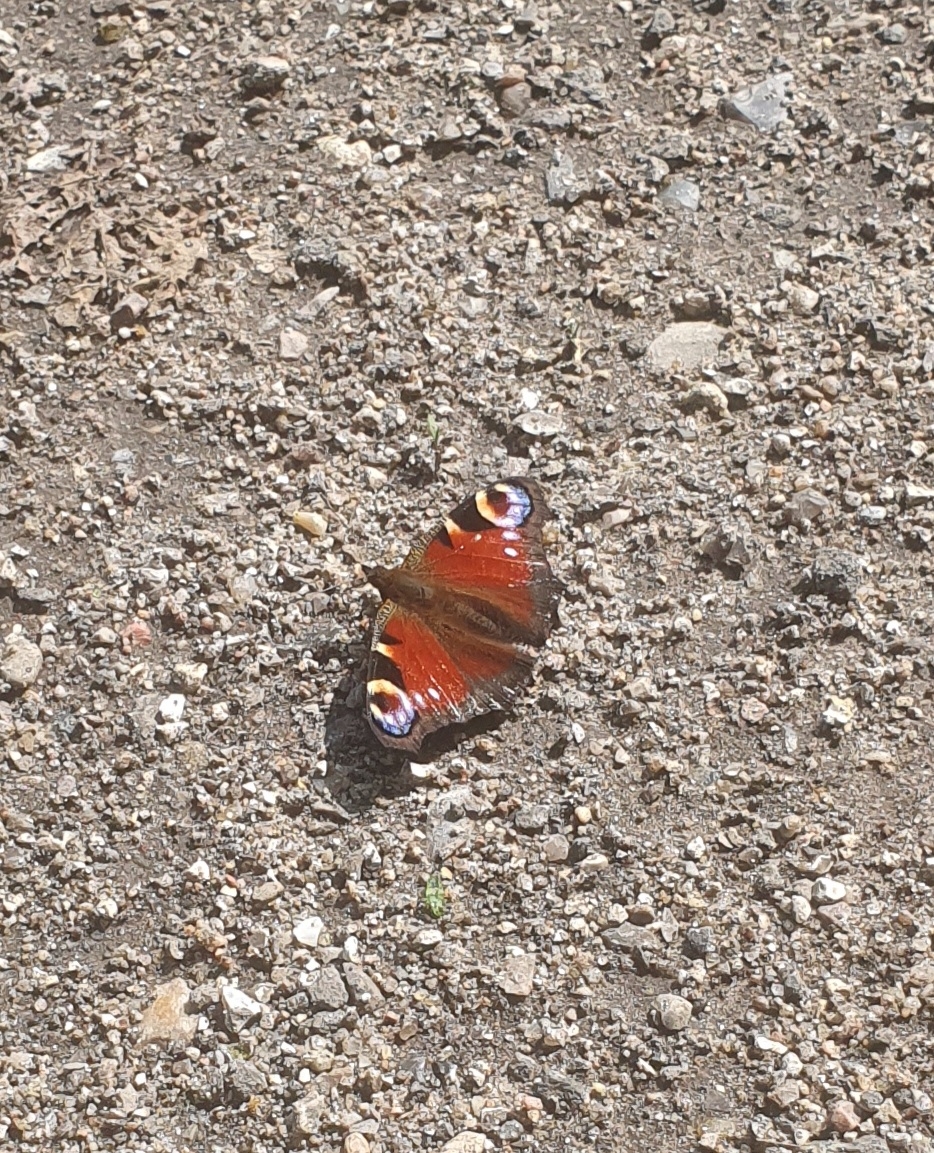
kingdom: Animalia
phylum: Arthropoda
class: Insecta
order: Lepidoptera
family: Nymphalidae
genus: Aglais
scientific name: Aglais io
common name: Dagpåfugleøje
